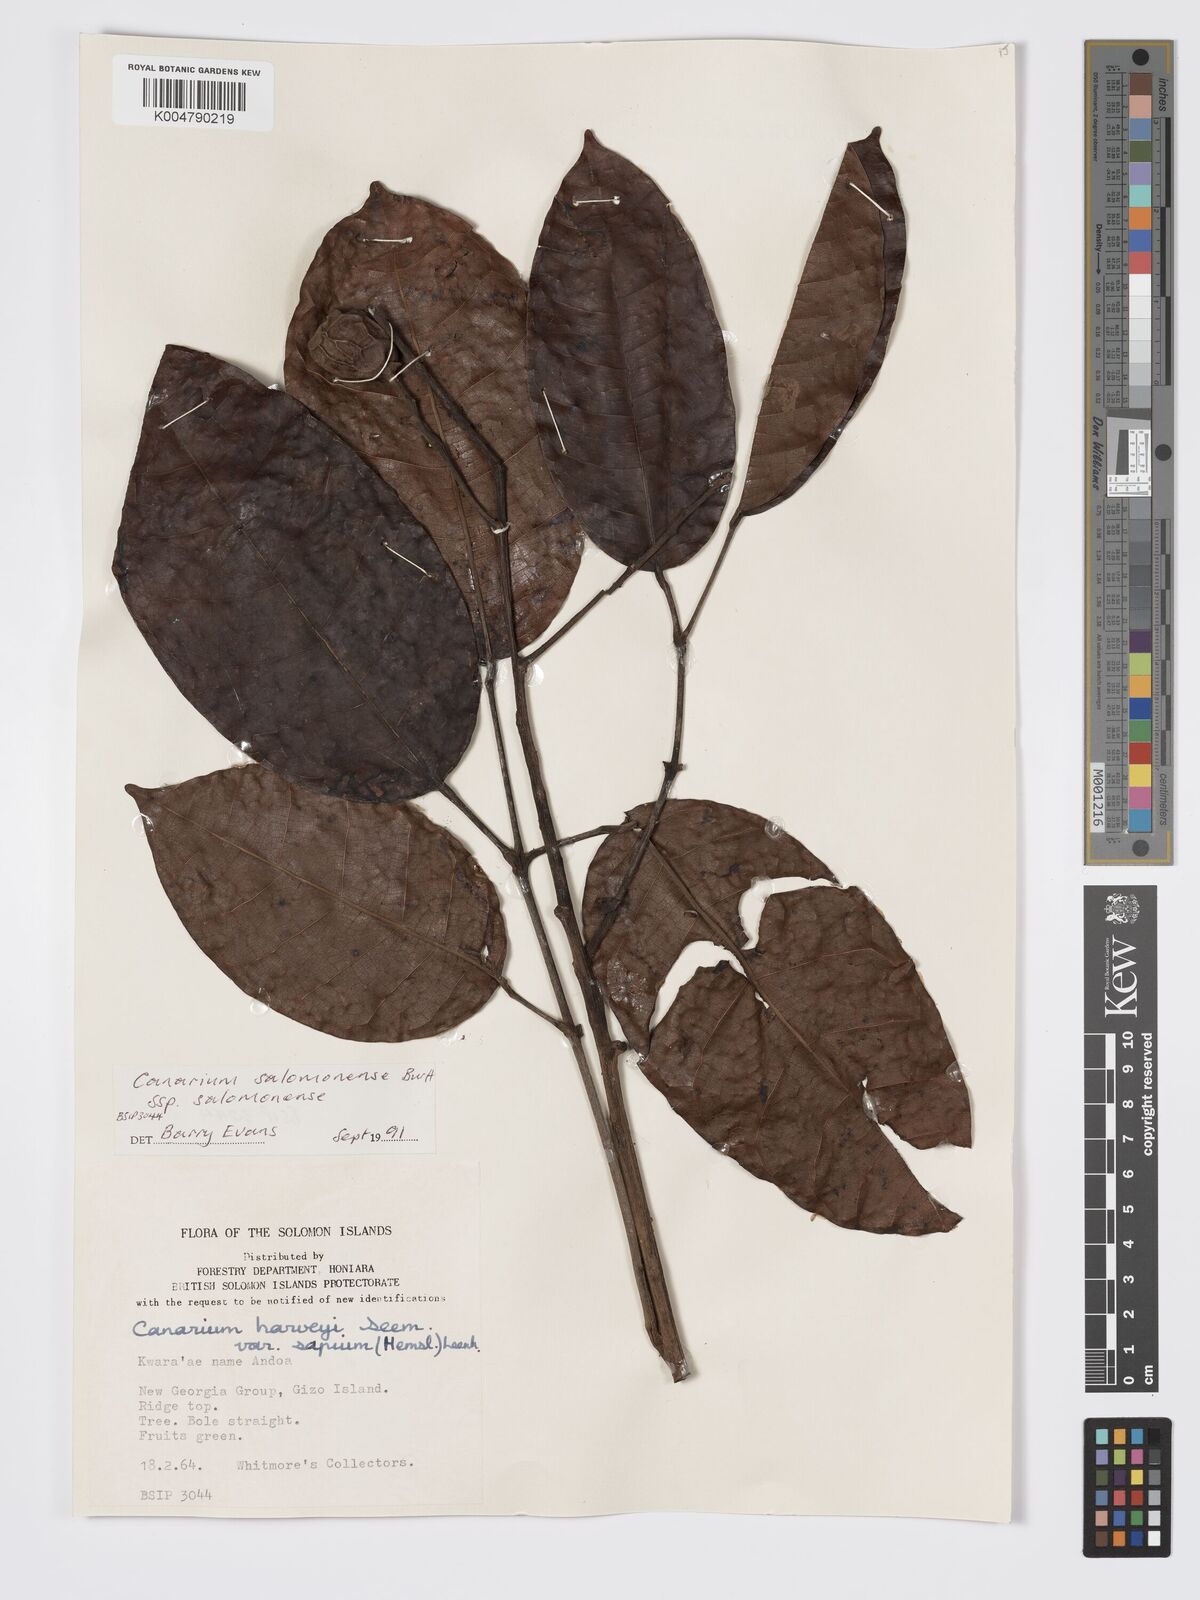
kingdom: Plantae
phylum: Tracheophyta
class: Magnoliopsida
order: Sapindales
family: Burseraceae
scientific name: Burseraceae
